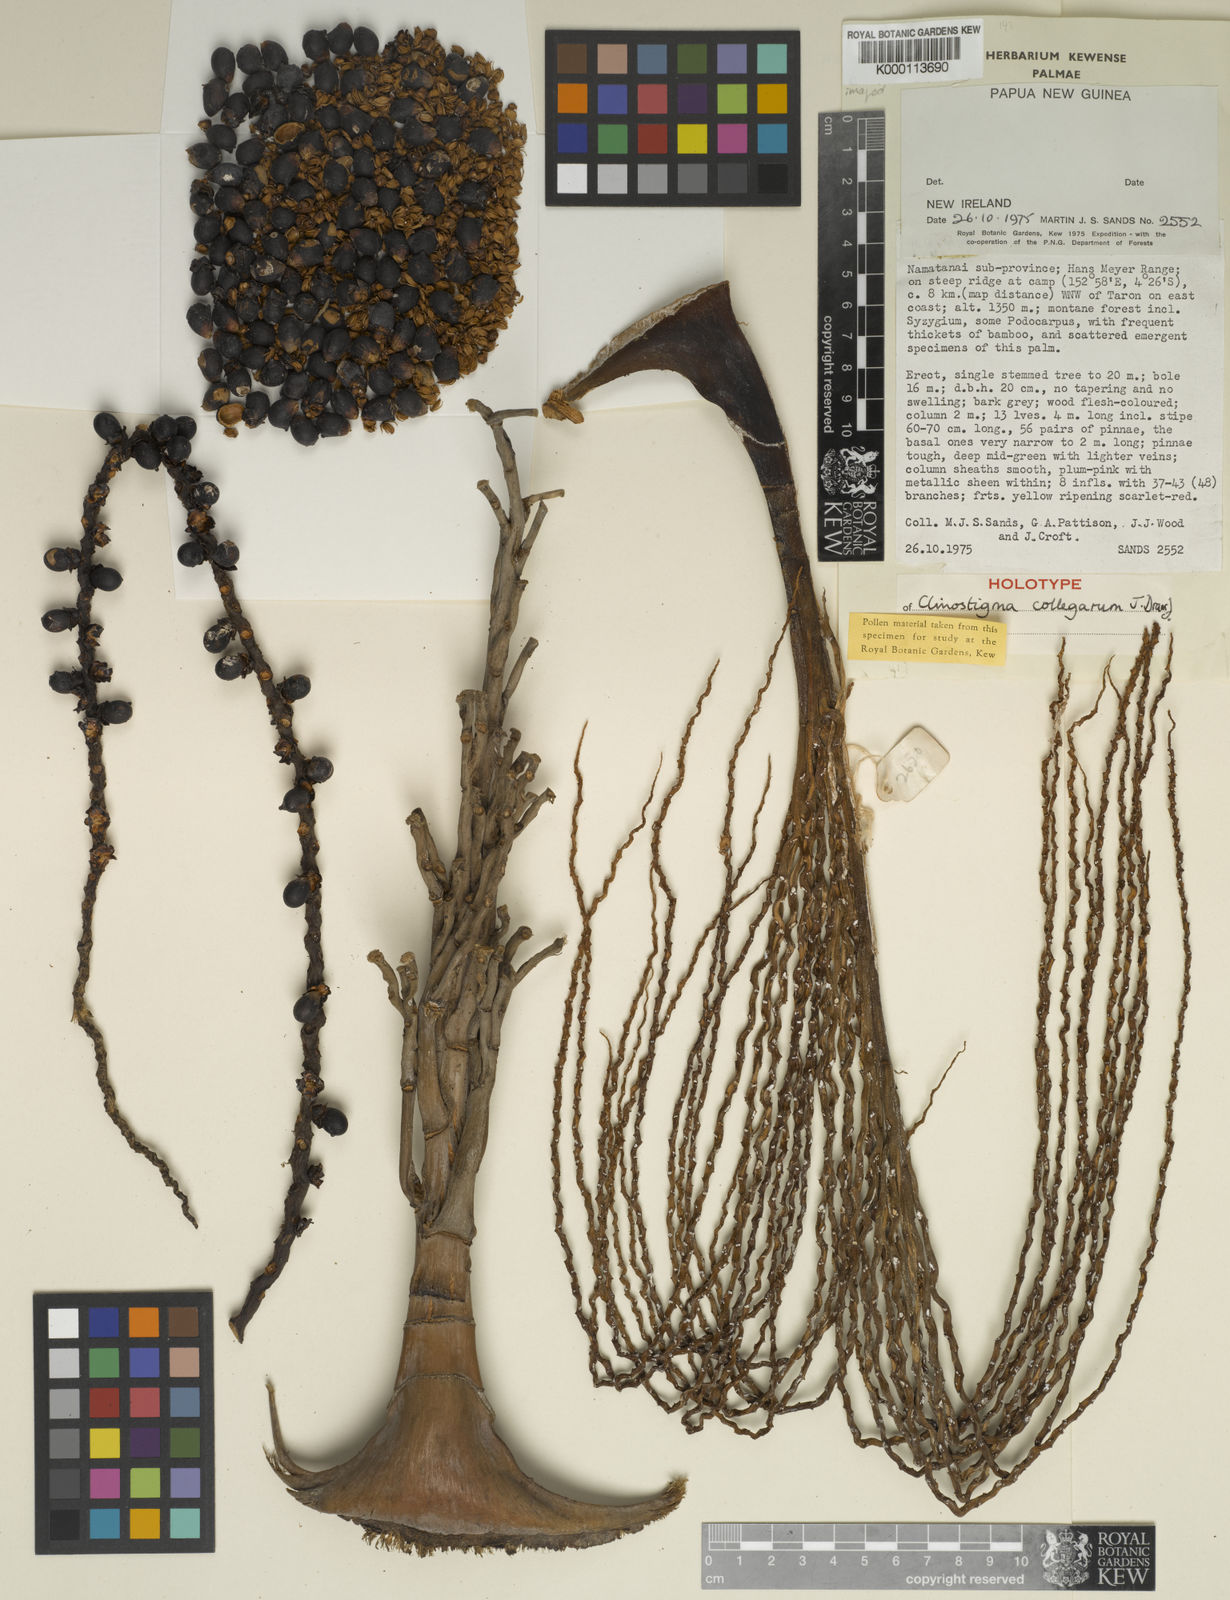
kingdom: Plantae
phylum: Tracheophyta
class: Liliopsida
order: Arecales
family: Arecaceae
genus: Clinostigma
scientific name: Clinostigma collegarum
